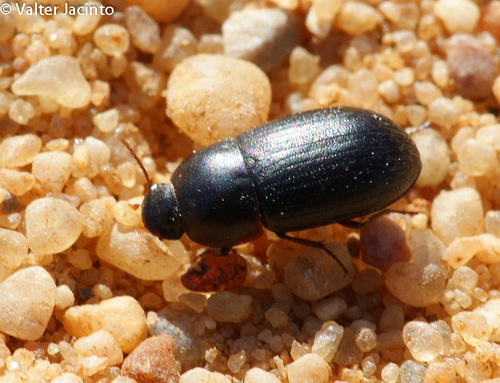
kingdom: Animalia
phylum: Arthropoda
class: Insecta
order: Coleoptera
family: Tenebrionidae
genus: Crypticus
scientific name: Crypticus gibbulus
